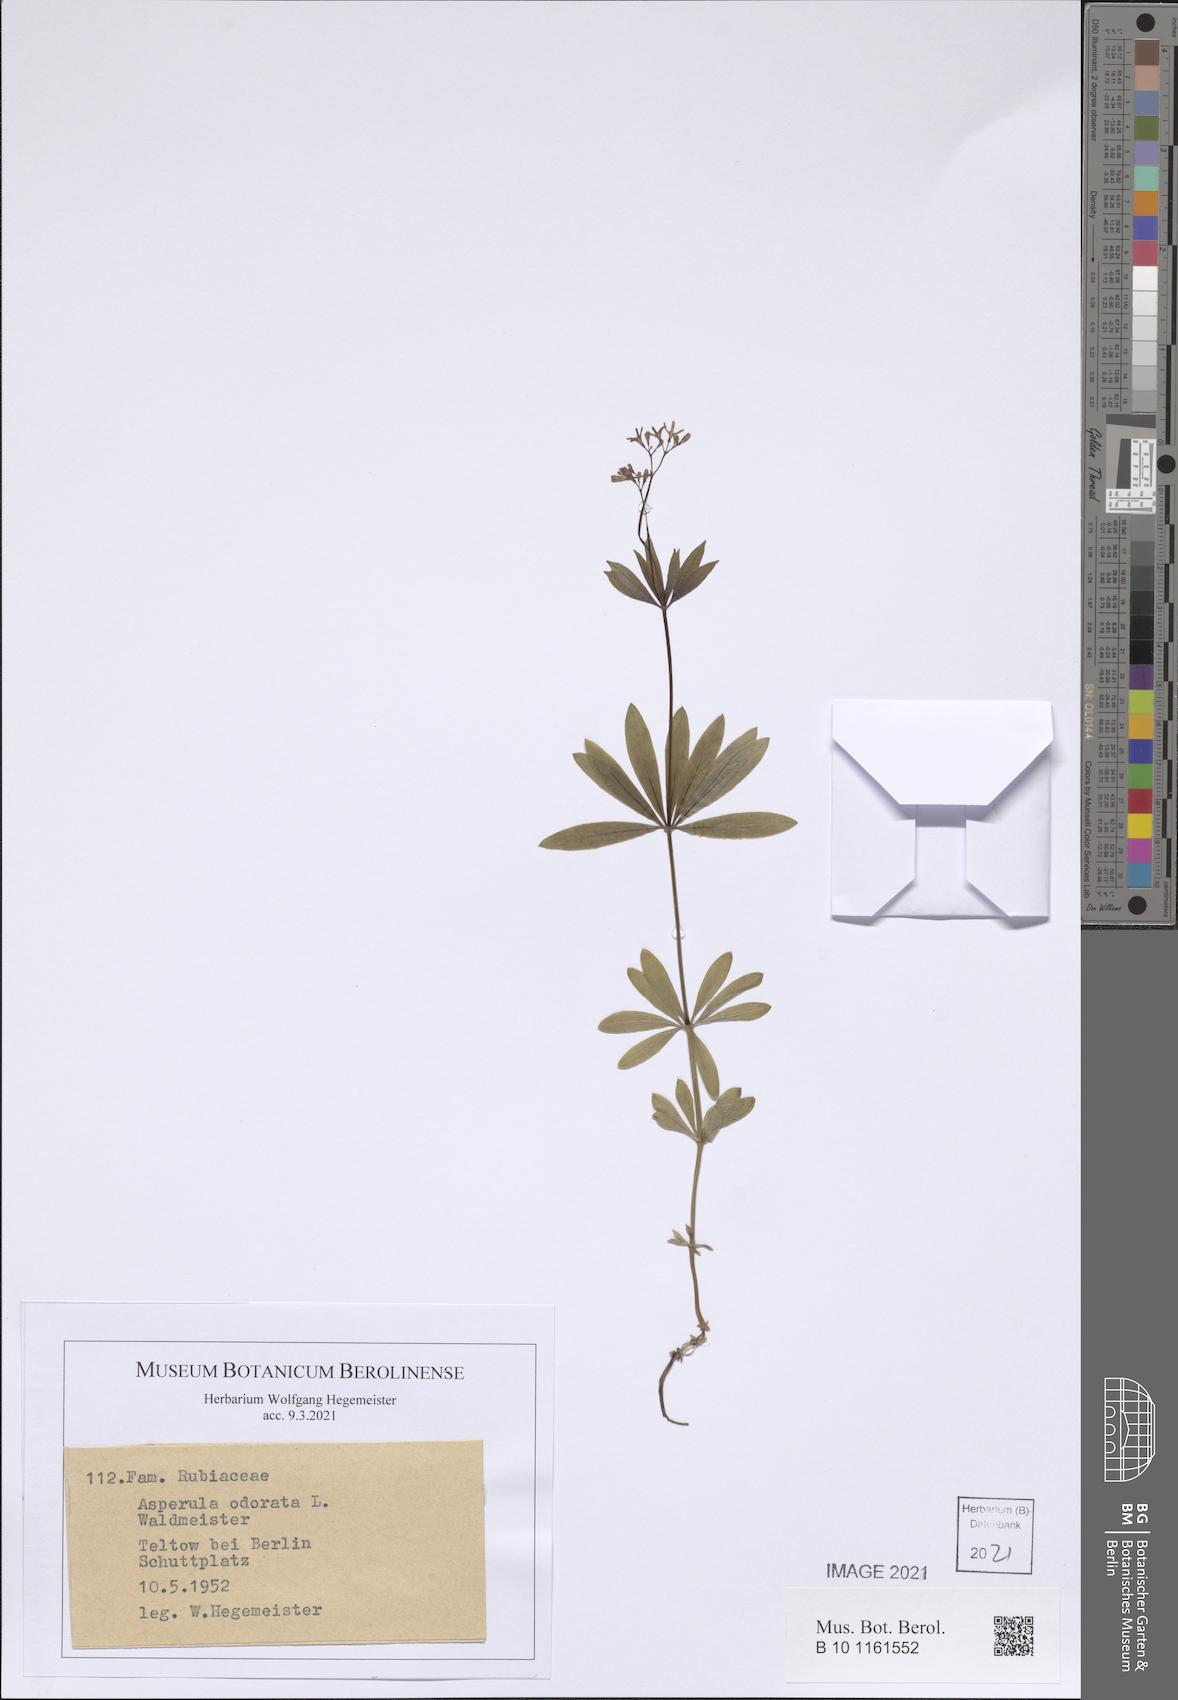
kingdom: Plantae
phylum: Tracheophyta
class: Magnoliopsida
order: Gentianales
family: Rubiaceae
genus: Galium
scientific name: Galium odoratum
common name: Sweet woodruff
